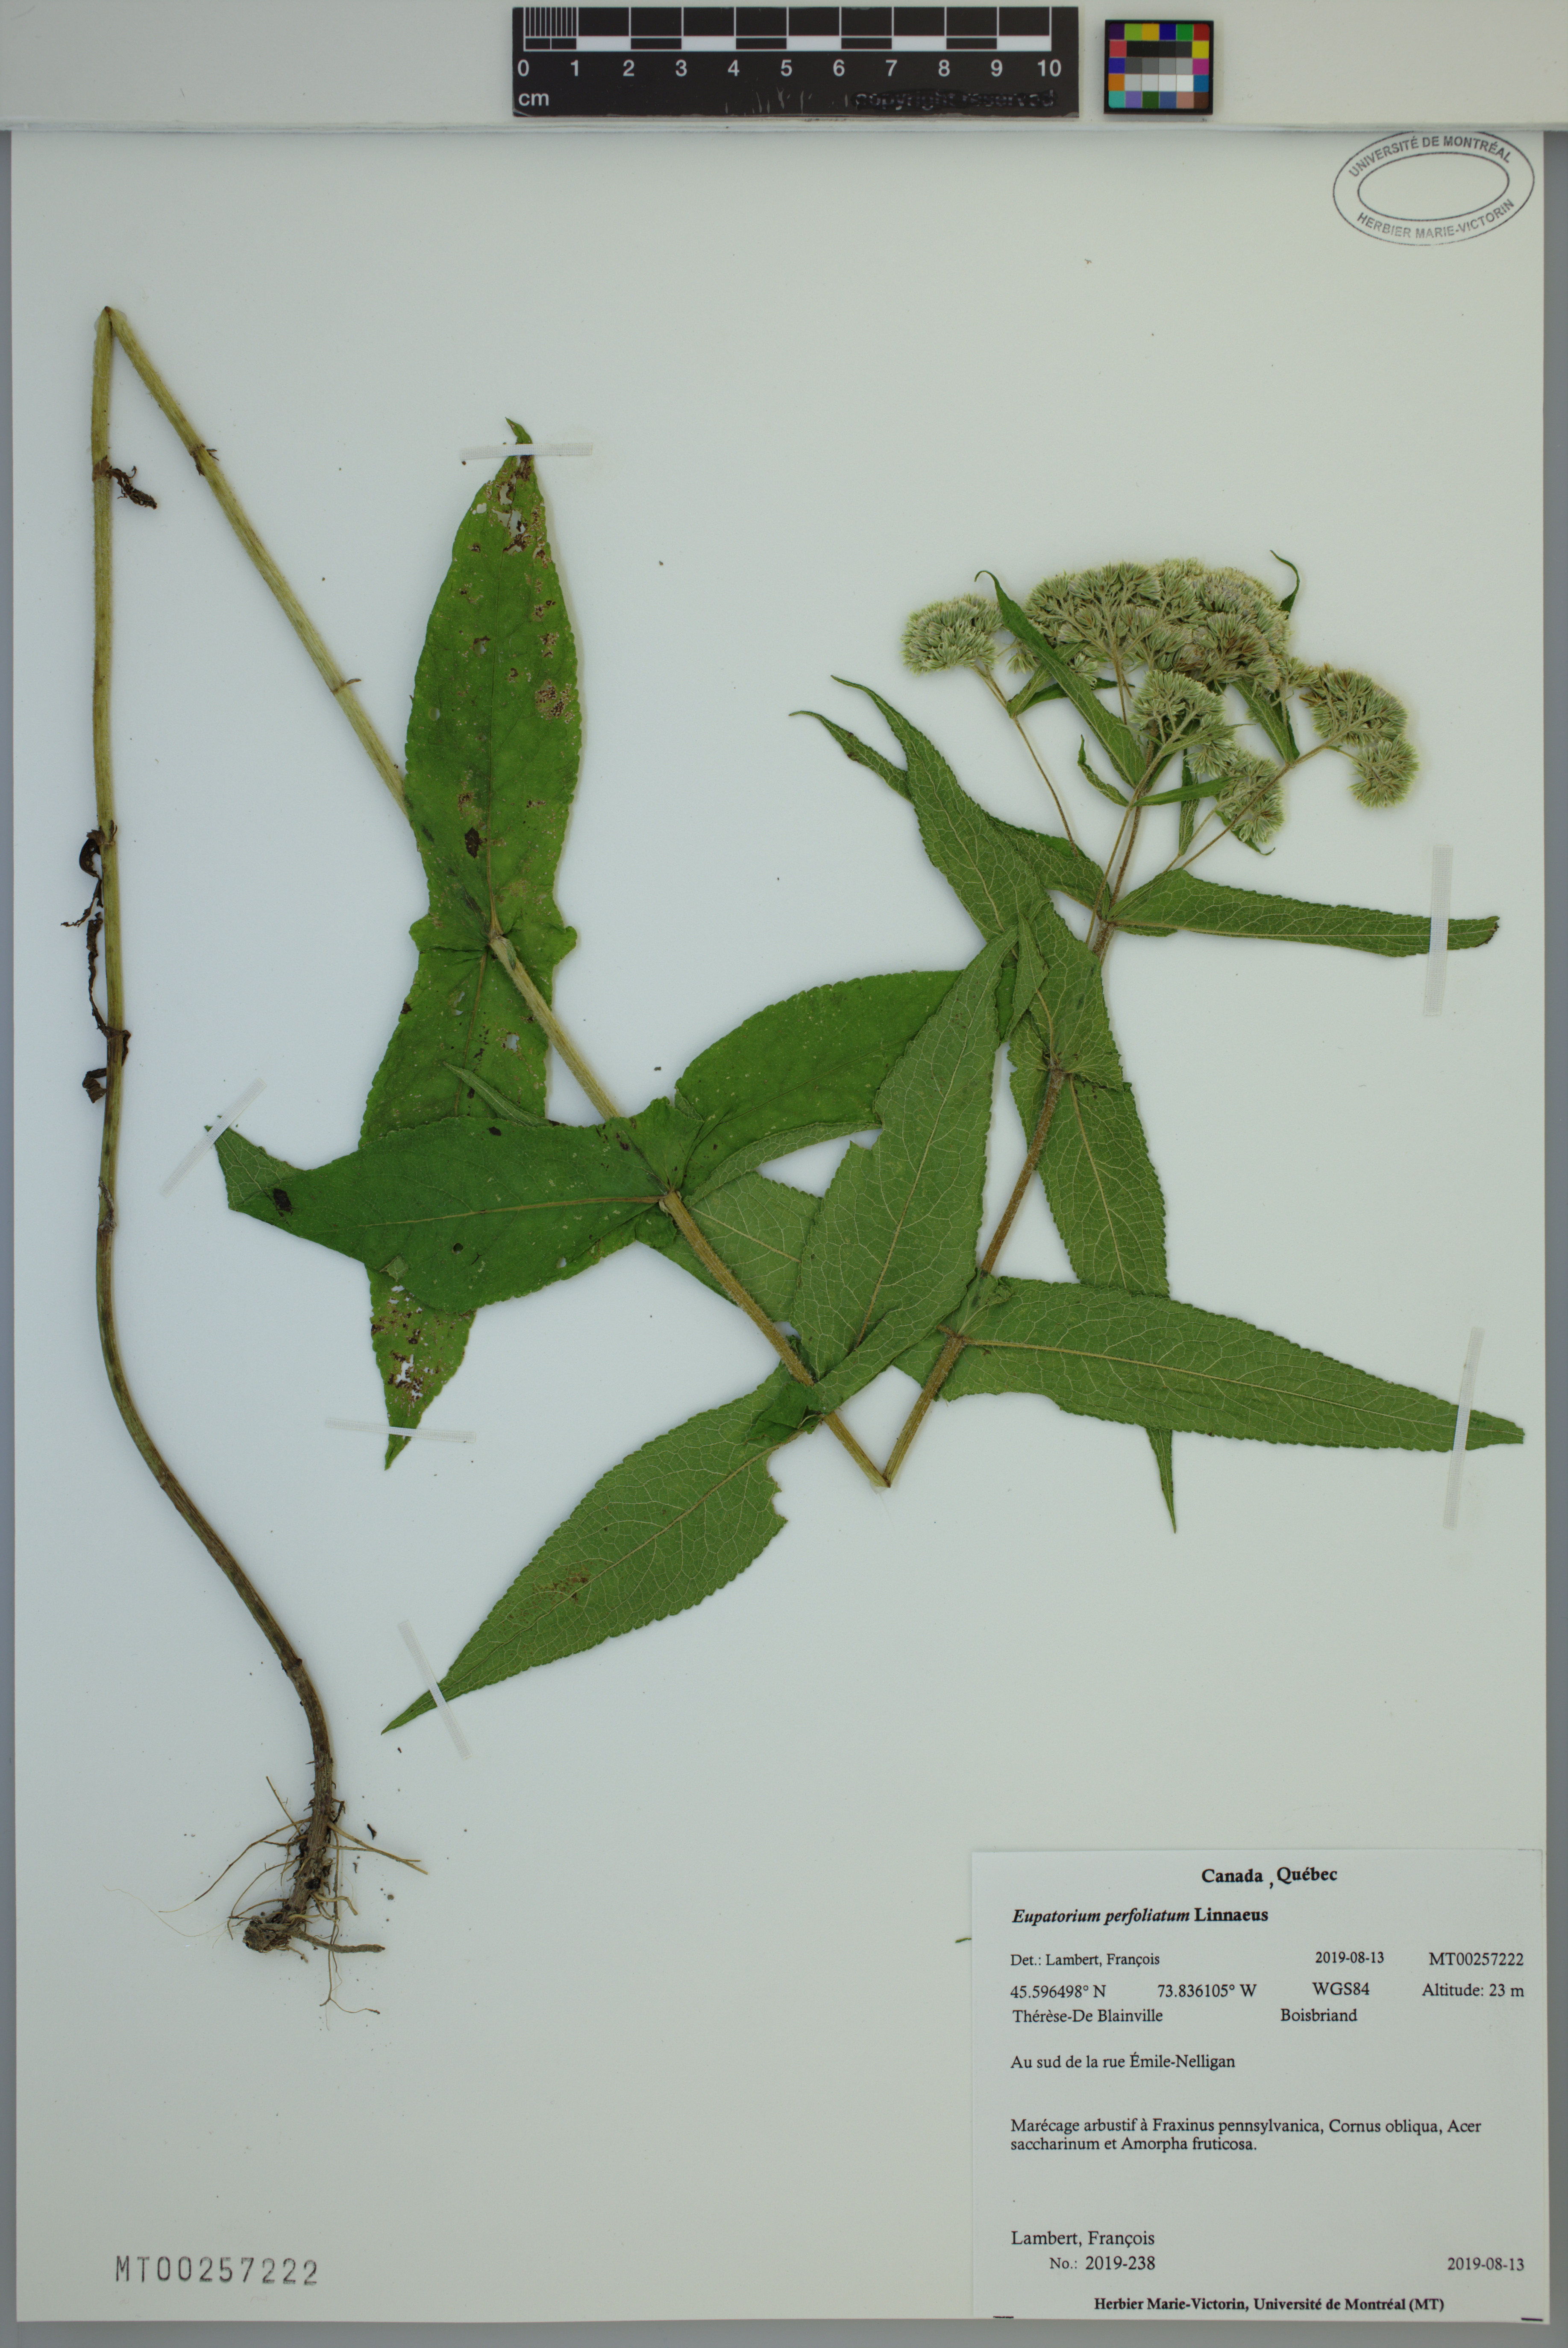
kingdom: Plantae
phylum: Tracheophyta
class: Magnoliopsida
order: Asterales
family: Asteraceae
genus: Eupatorium
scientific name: Eupatorium perfoliatum
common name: Boneset
